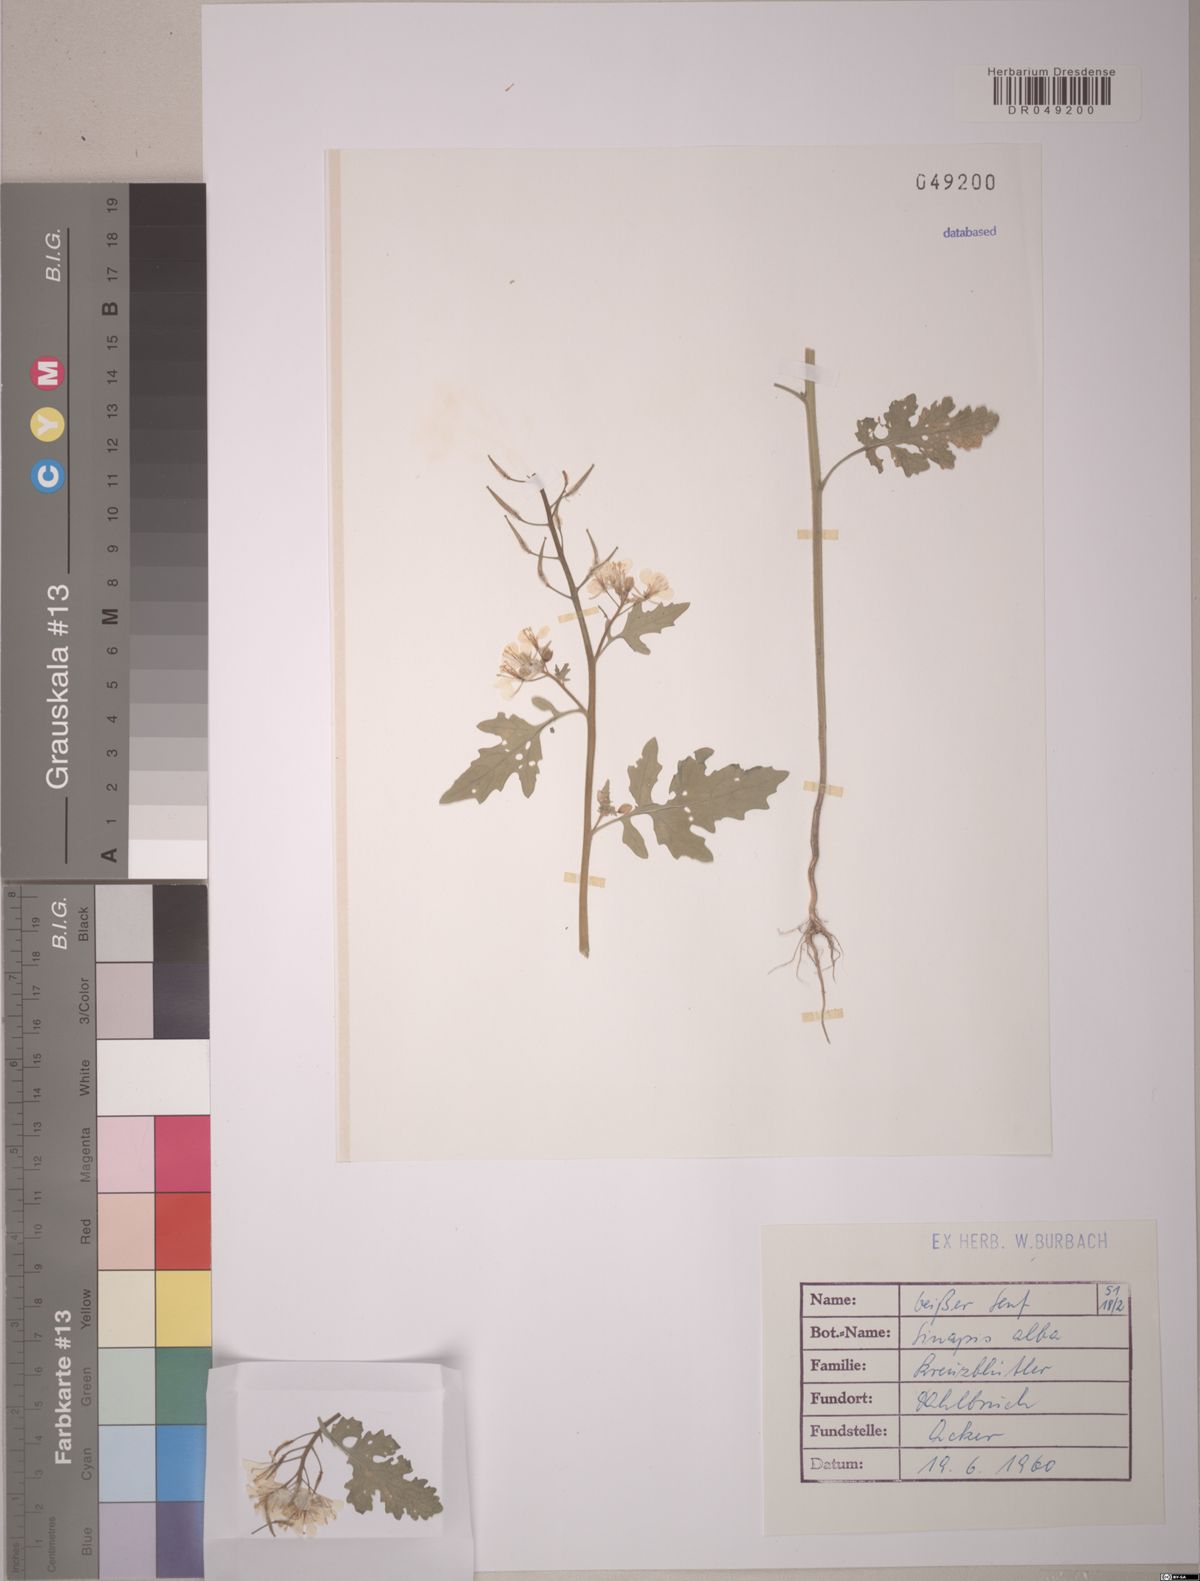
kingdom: Plantae
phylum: Tracheophyta
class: Magnoliopsida
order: Brassicales
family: Brassicaceae
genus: Sinapis
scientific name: Sinapis alba
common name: White mustard
